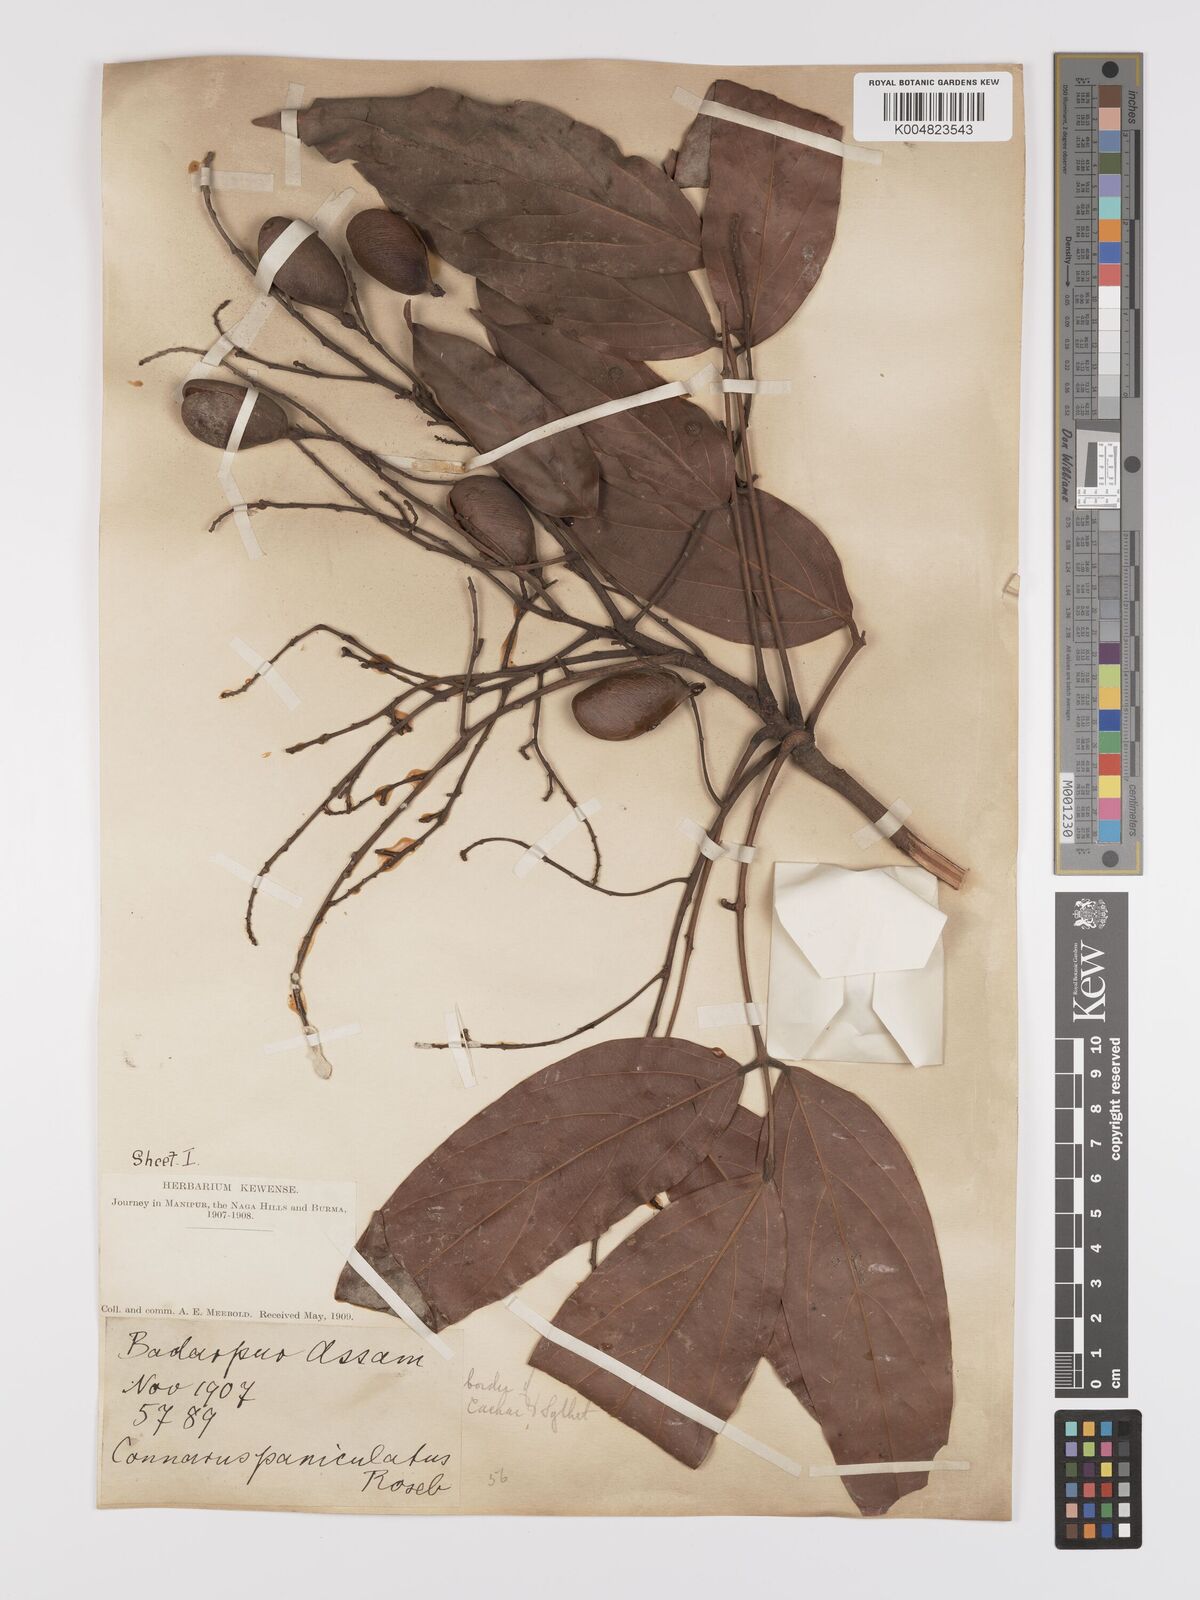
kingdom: Plantae
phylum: Tracheophyta
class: Magnoliopsida
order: Oxalidales
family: Connaraceae
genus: Connarus
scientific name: Connarus paniculatus
